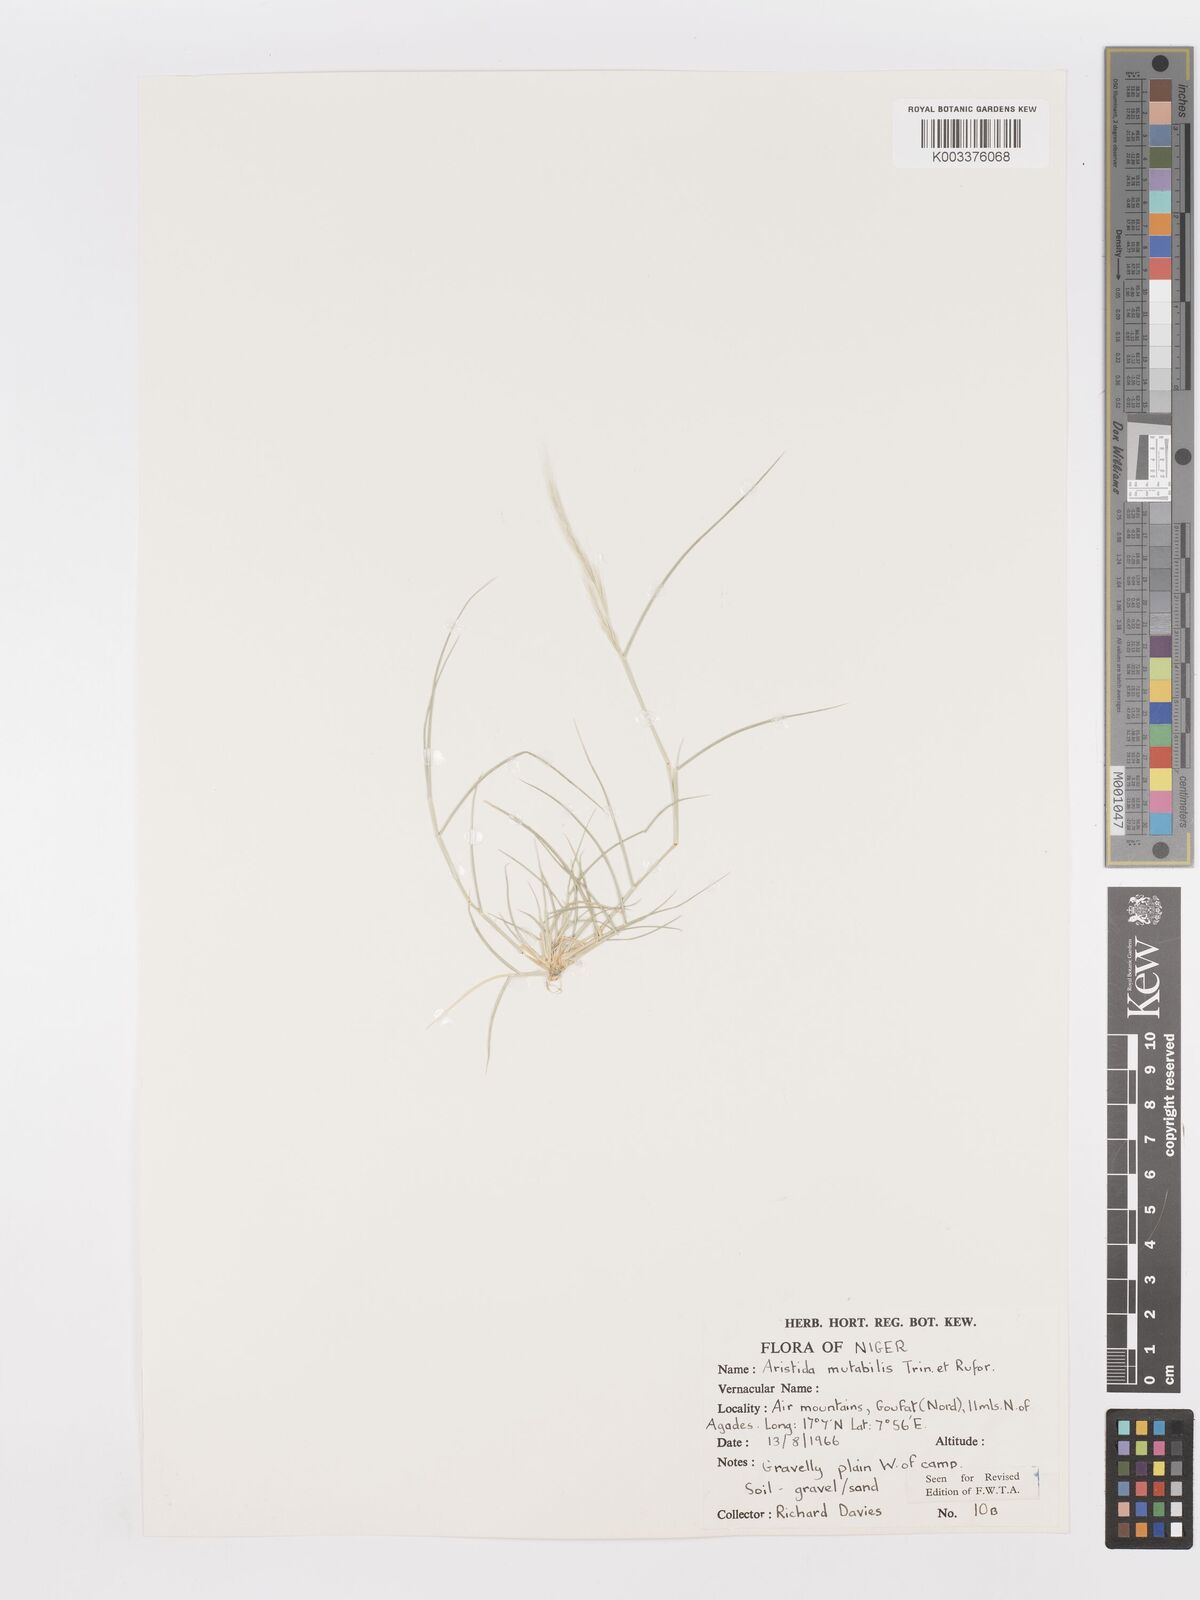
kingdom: Plantae
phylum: Tracheophyta
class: Liliopsida
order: Poales
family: Poaceae
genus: Aristida
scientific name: Aristida mutabilis
